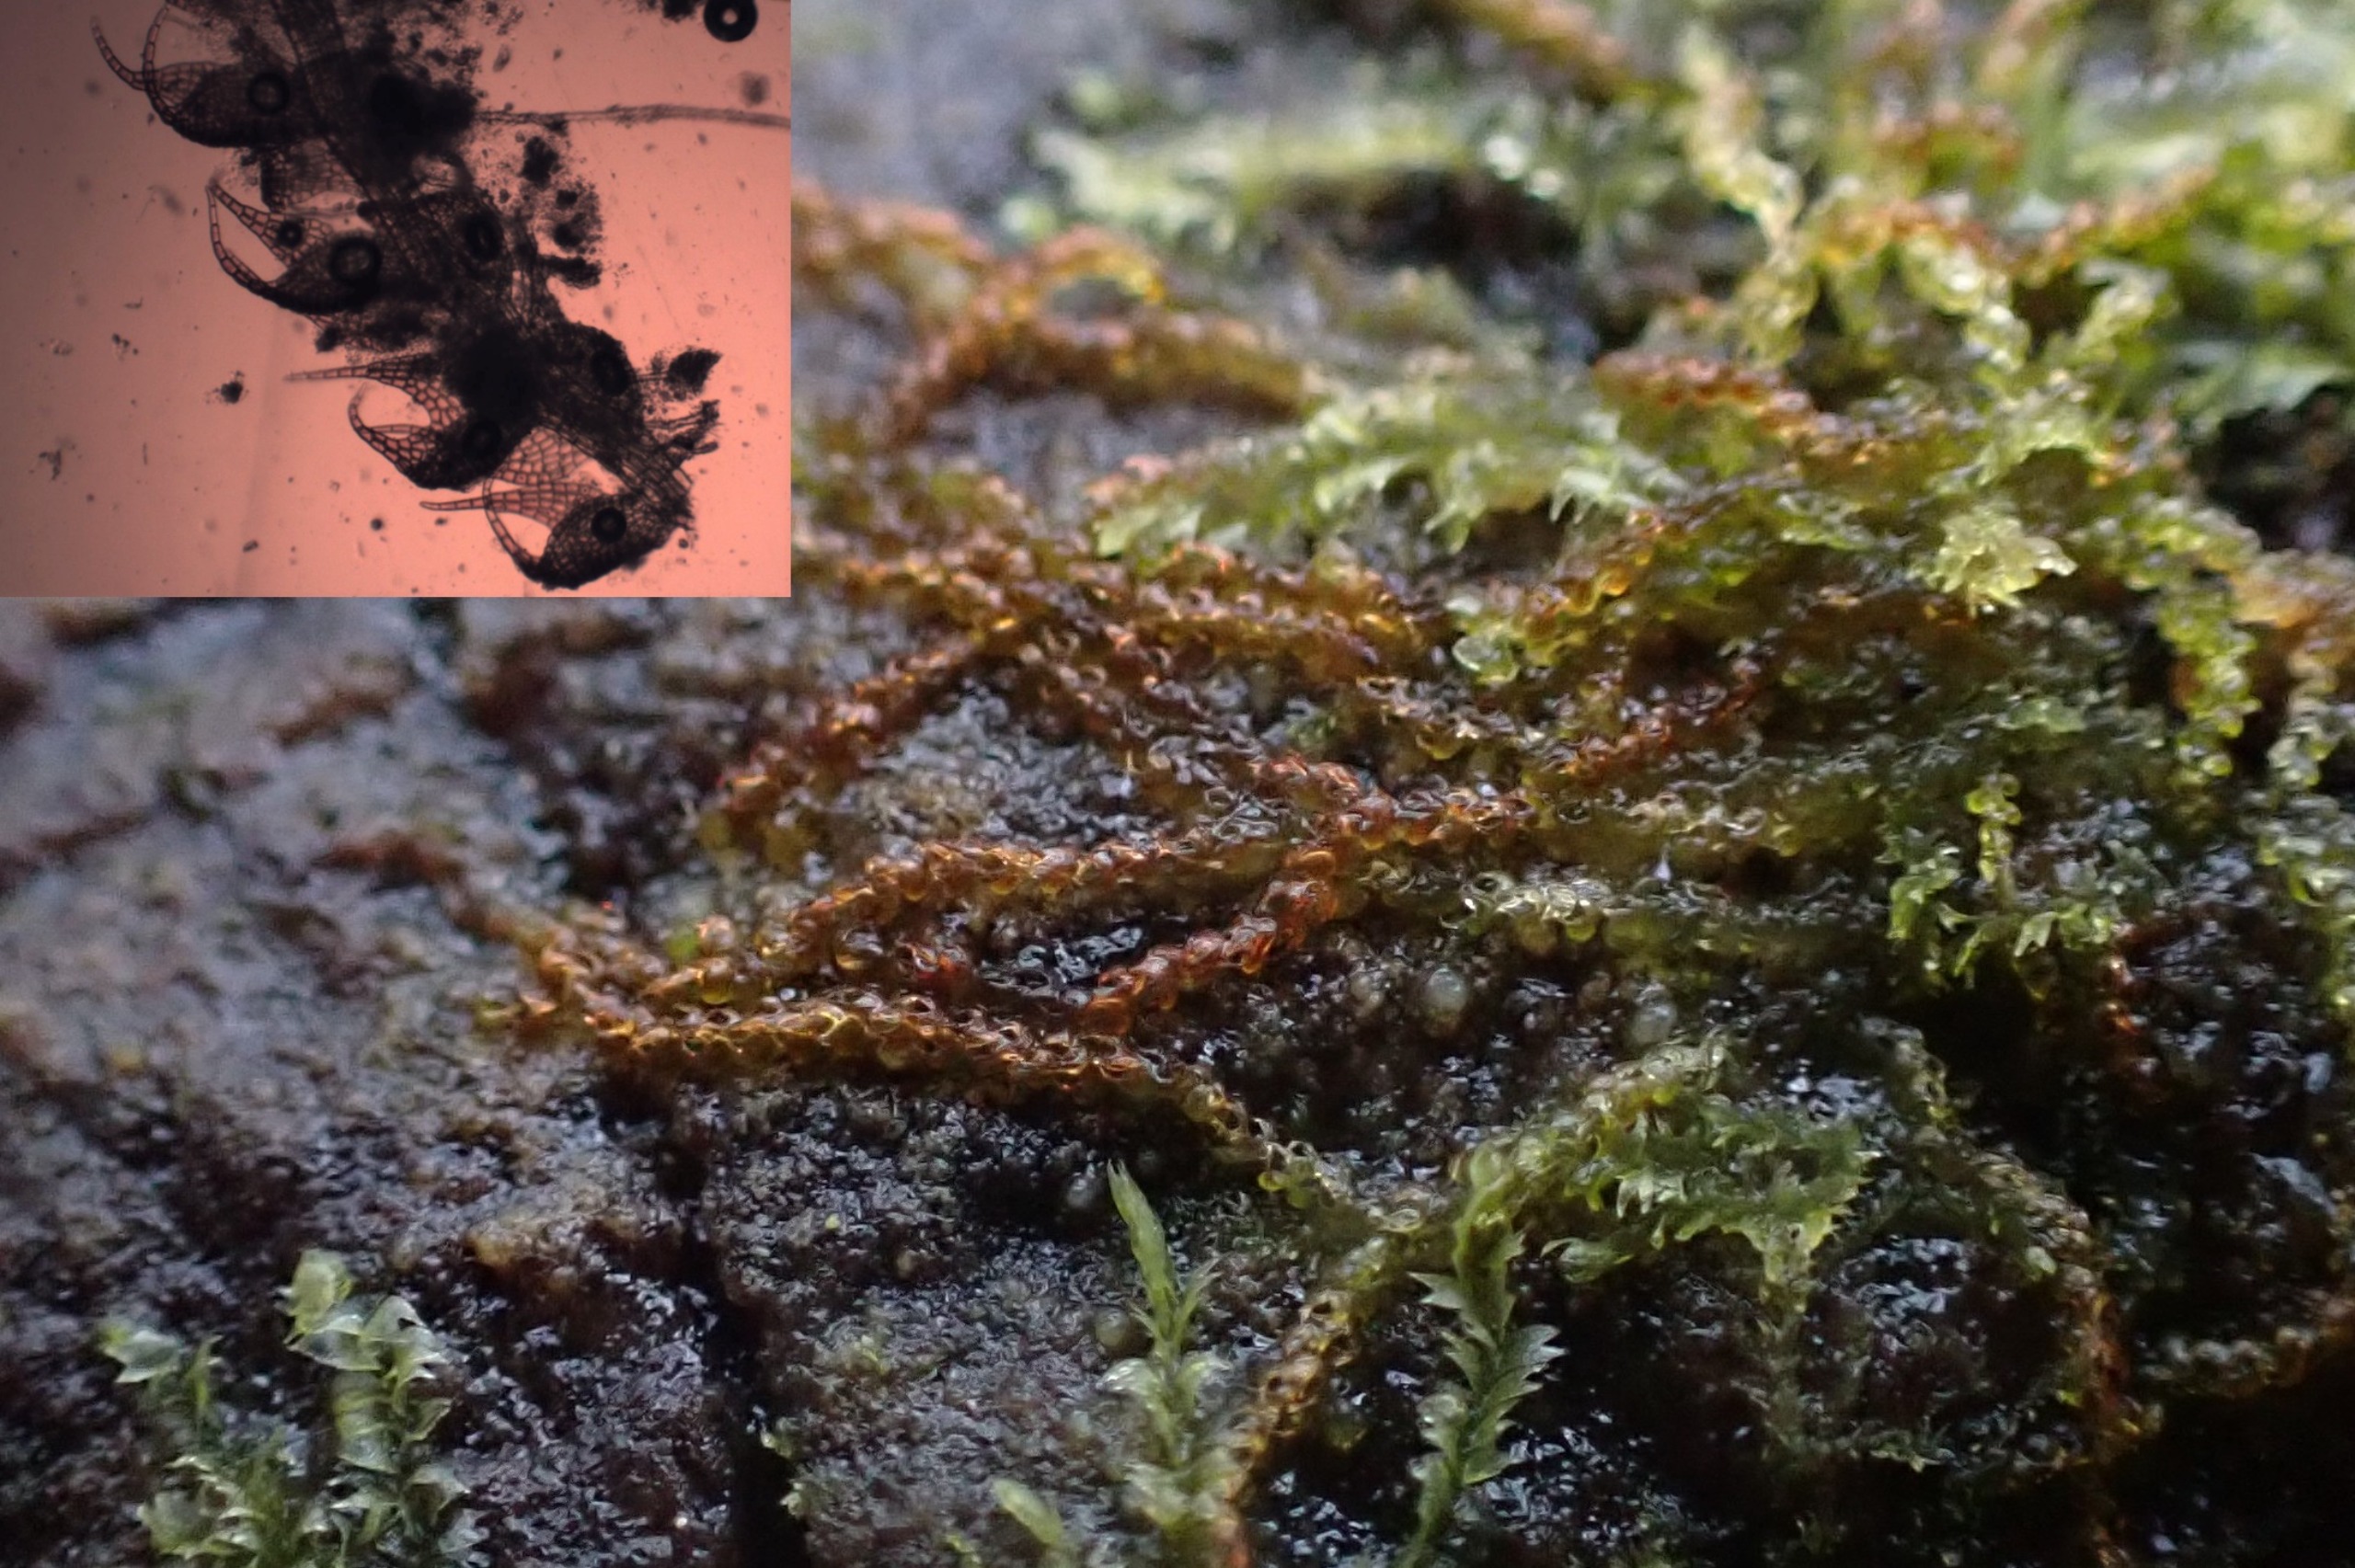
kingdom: Plantae
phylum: Marchantiophyta
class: Jungermanniopsida
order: Jungermanniales
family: Cephaloziaceae
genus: Nowellia
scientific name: Nowellia curvifolia
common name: Krumbladet stødmos
